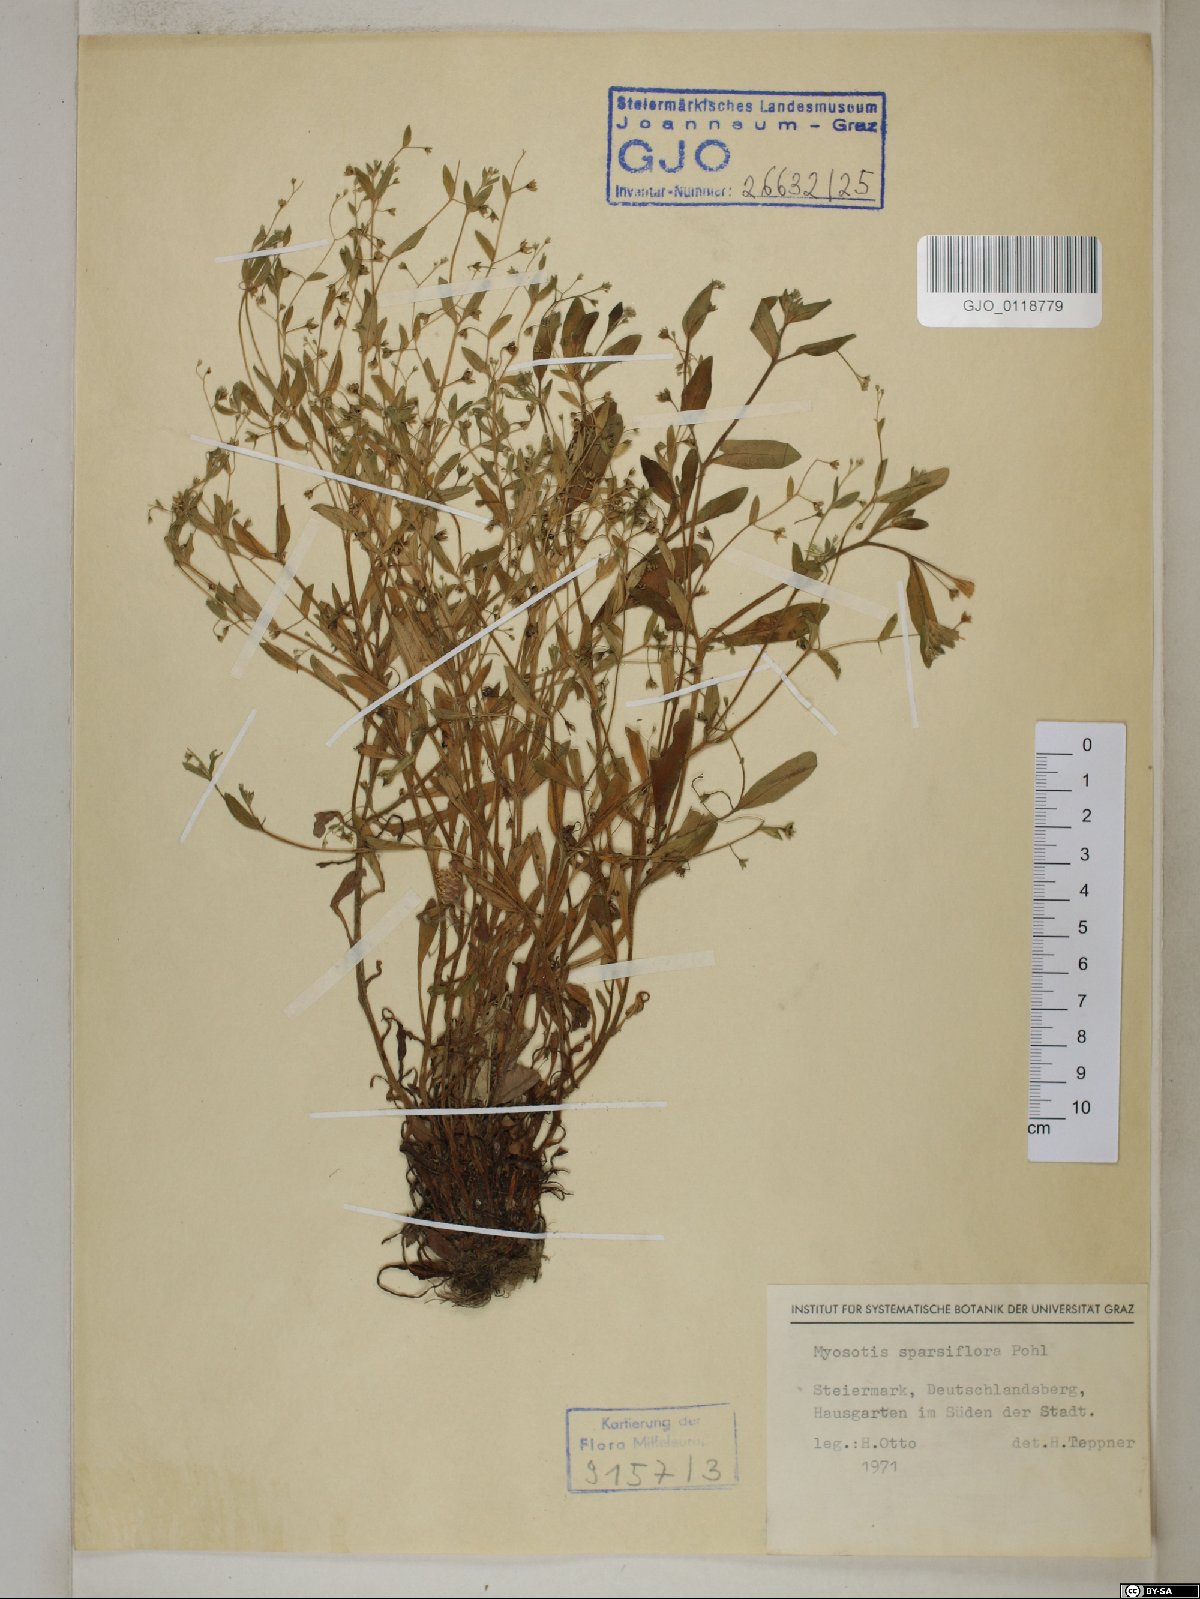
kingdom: Plantae
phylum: Tracheophyta
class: Magnoliopsida
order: Boraginales
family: Boraginaceae
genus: Myosotis
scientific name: Myosotis sparsiflora
